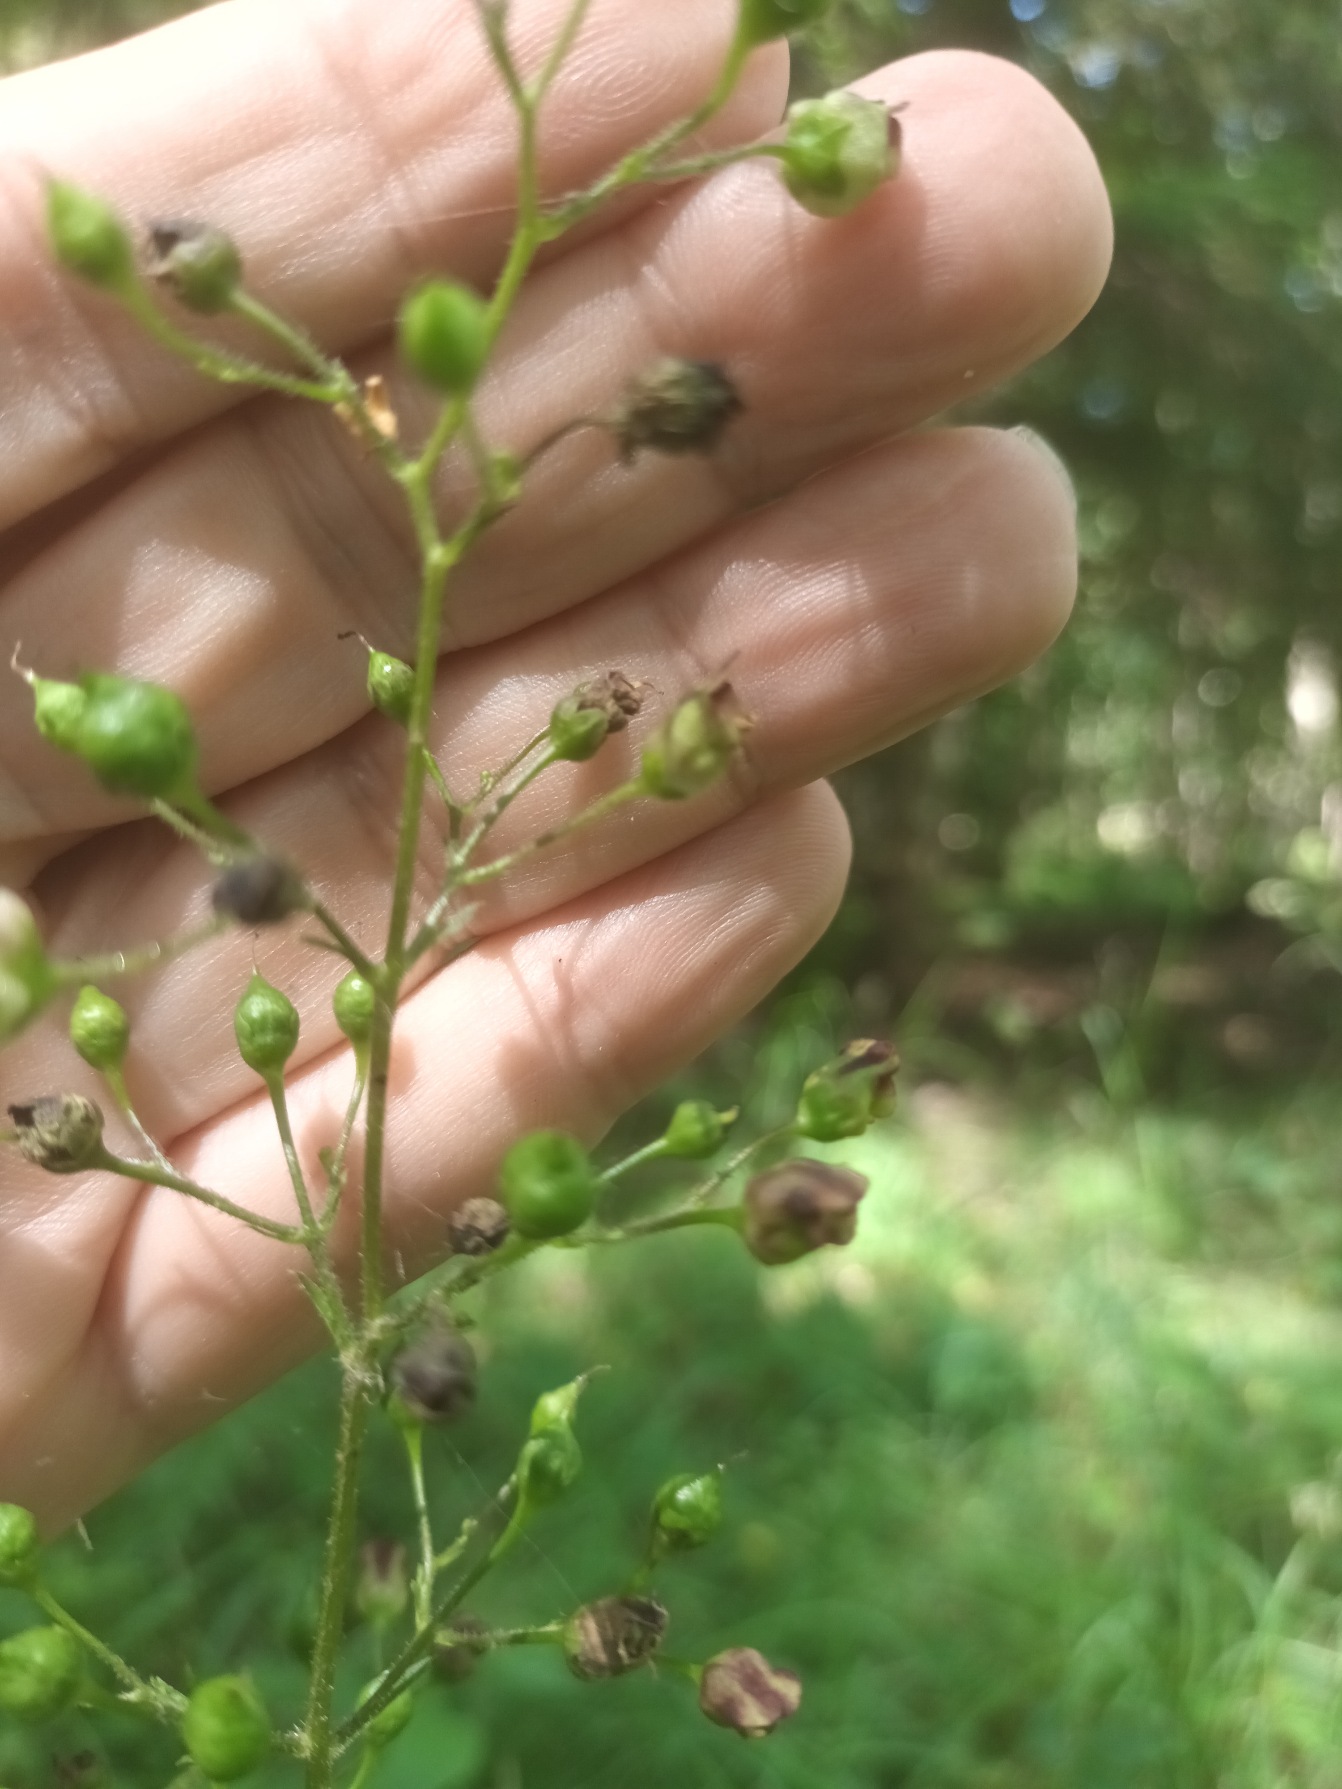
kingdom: Plantae
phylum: Tracheophyta
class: Magnoliopsida
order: Lamiales
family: Scrophulariaceae
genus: Scrophularia
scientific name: Scrophularia nodosa
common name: Knoldet brunrod
